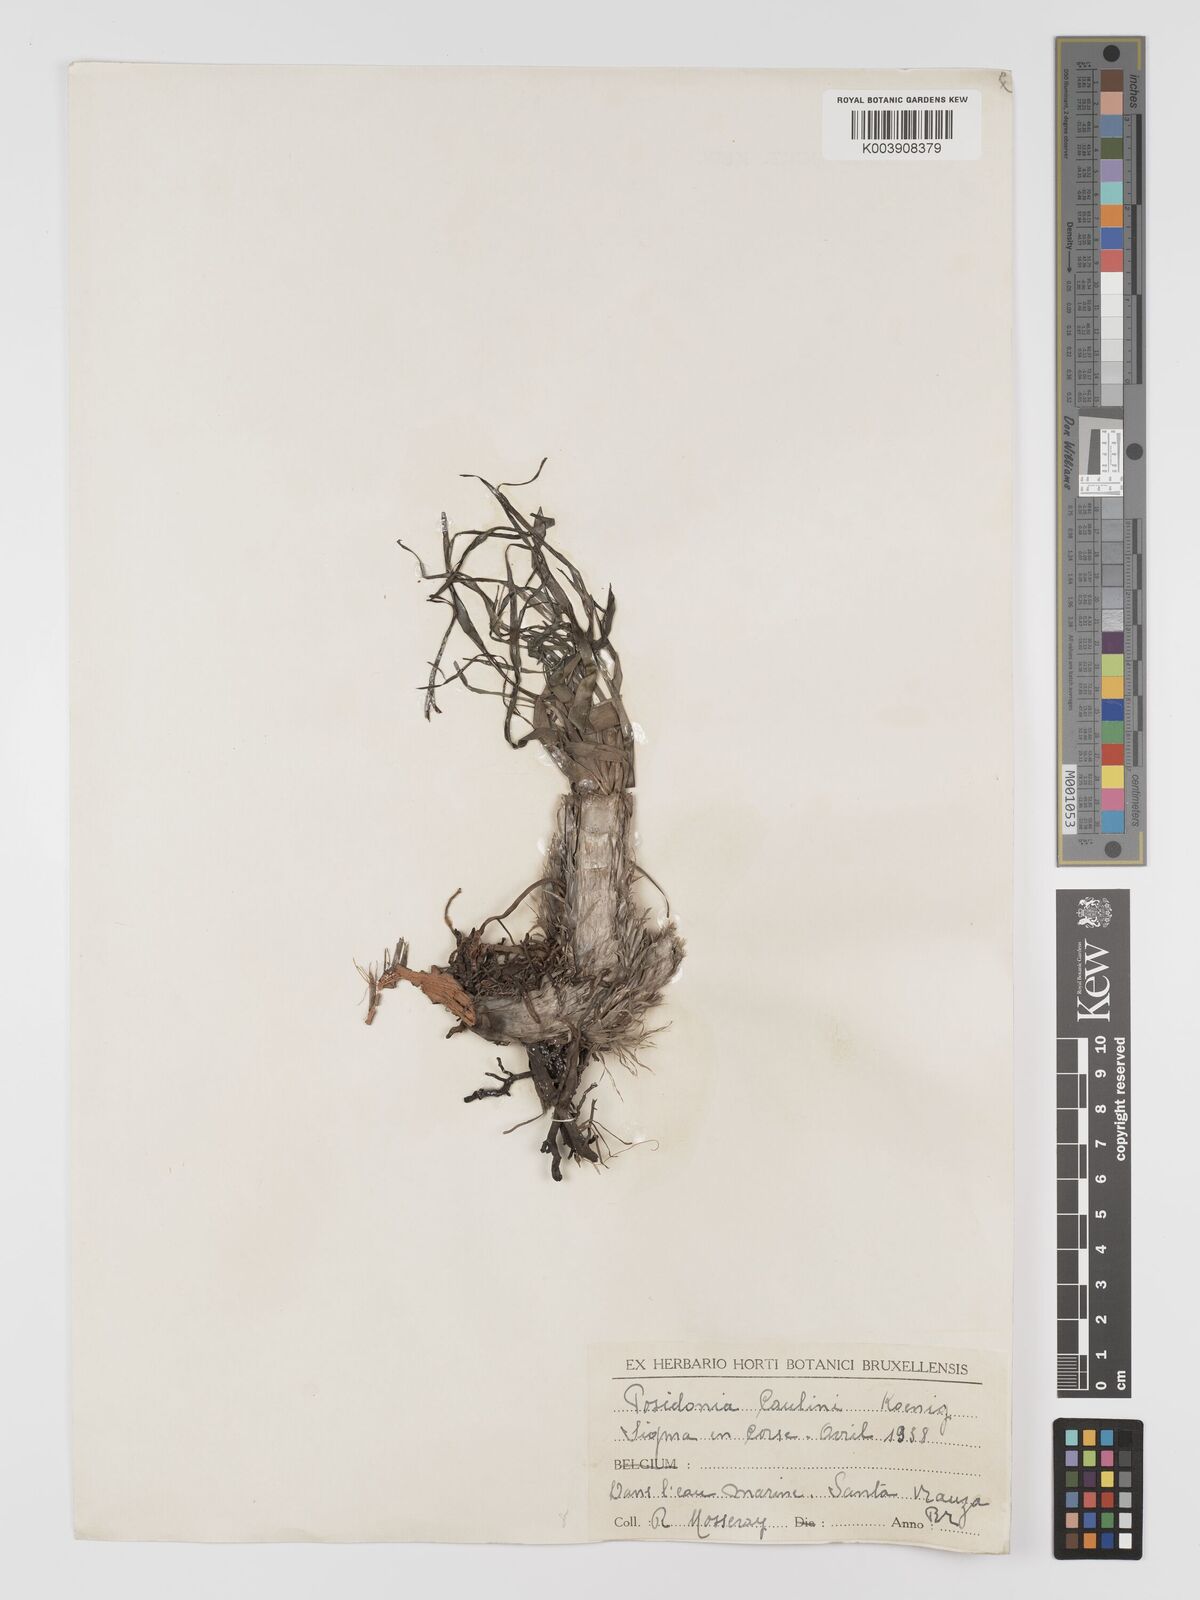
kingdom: Plantae
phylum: Tracheophyta
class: Liliopsida
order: Alismatales
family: Posidoniaceae
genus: Posidonia
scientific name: Posidonia
